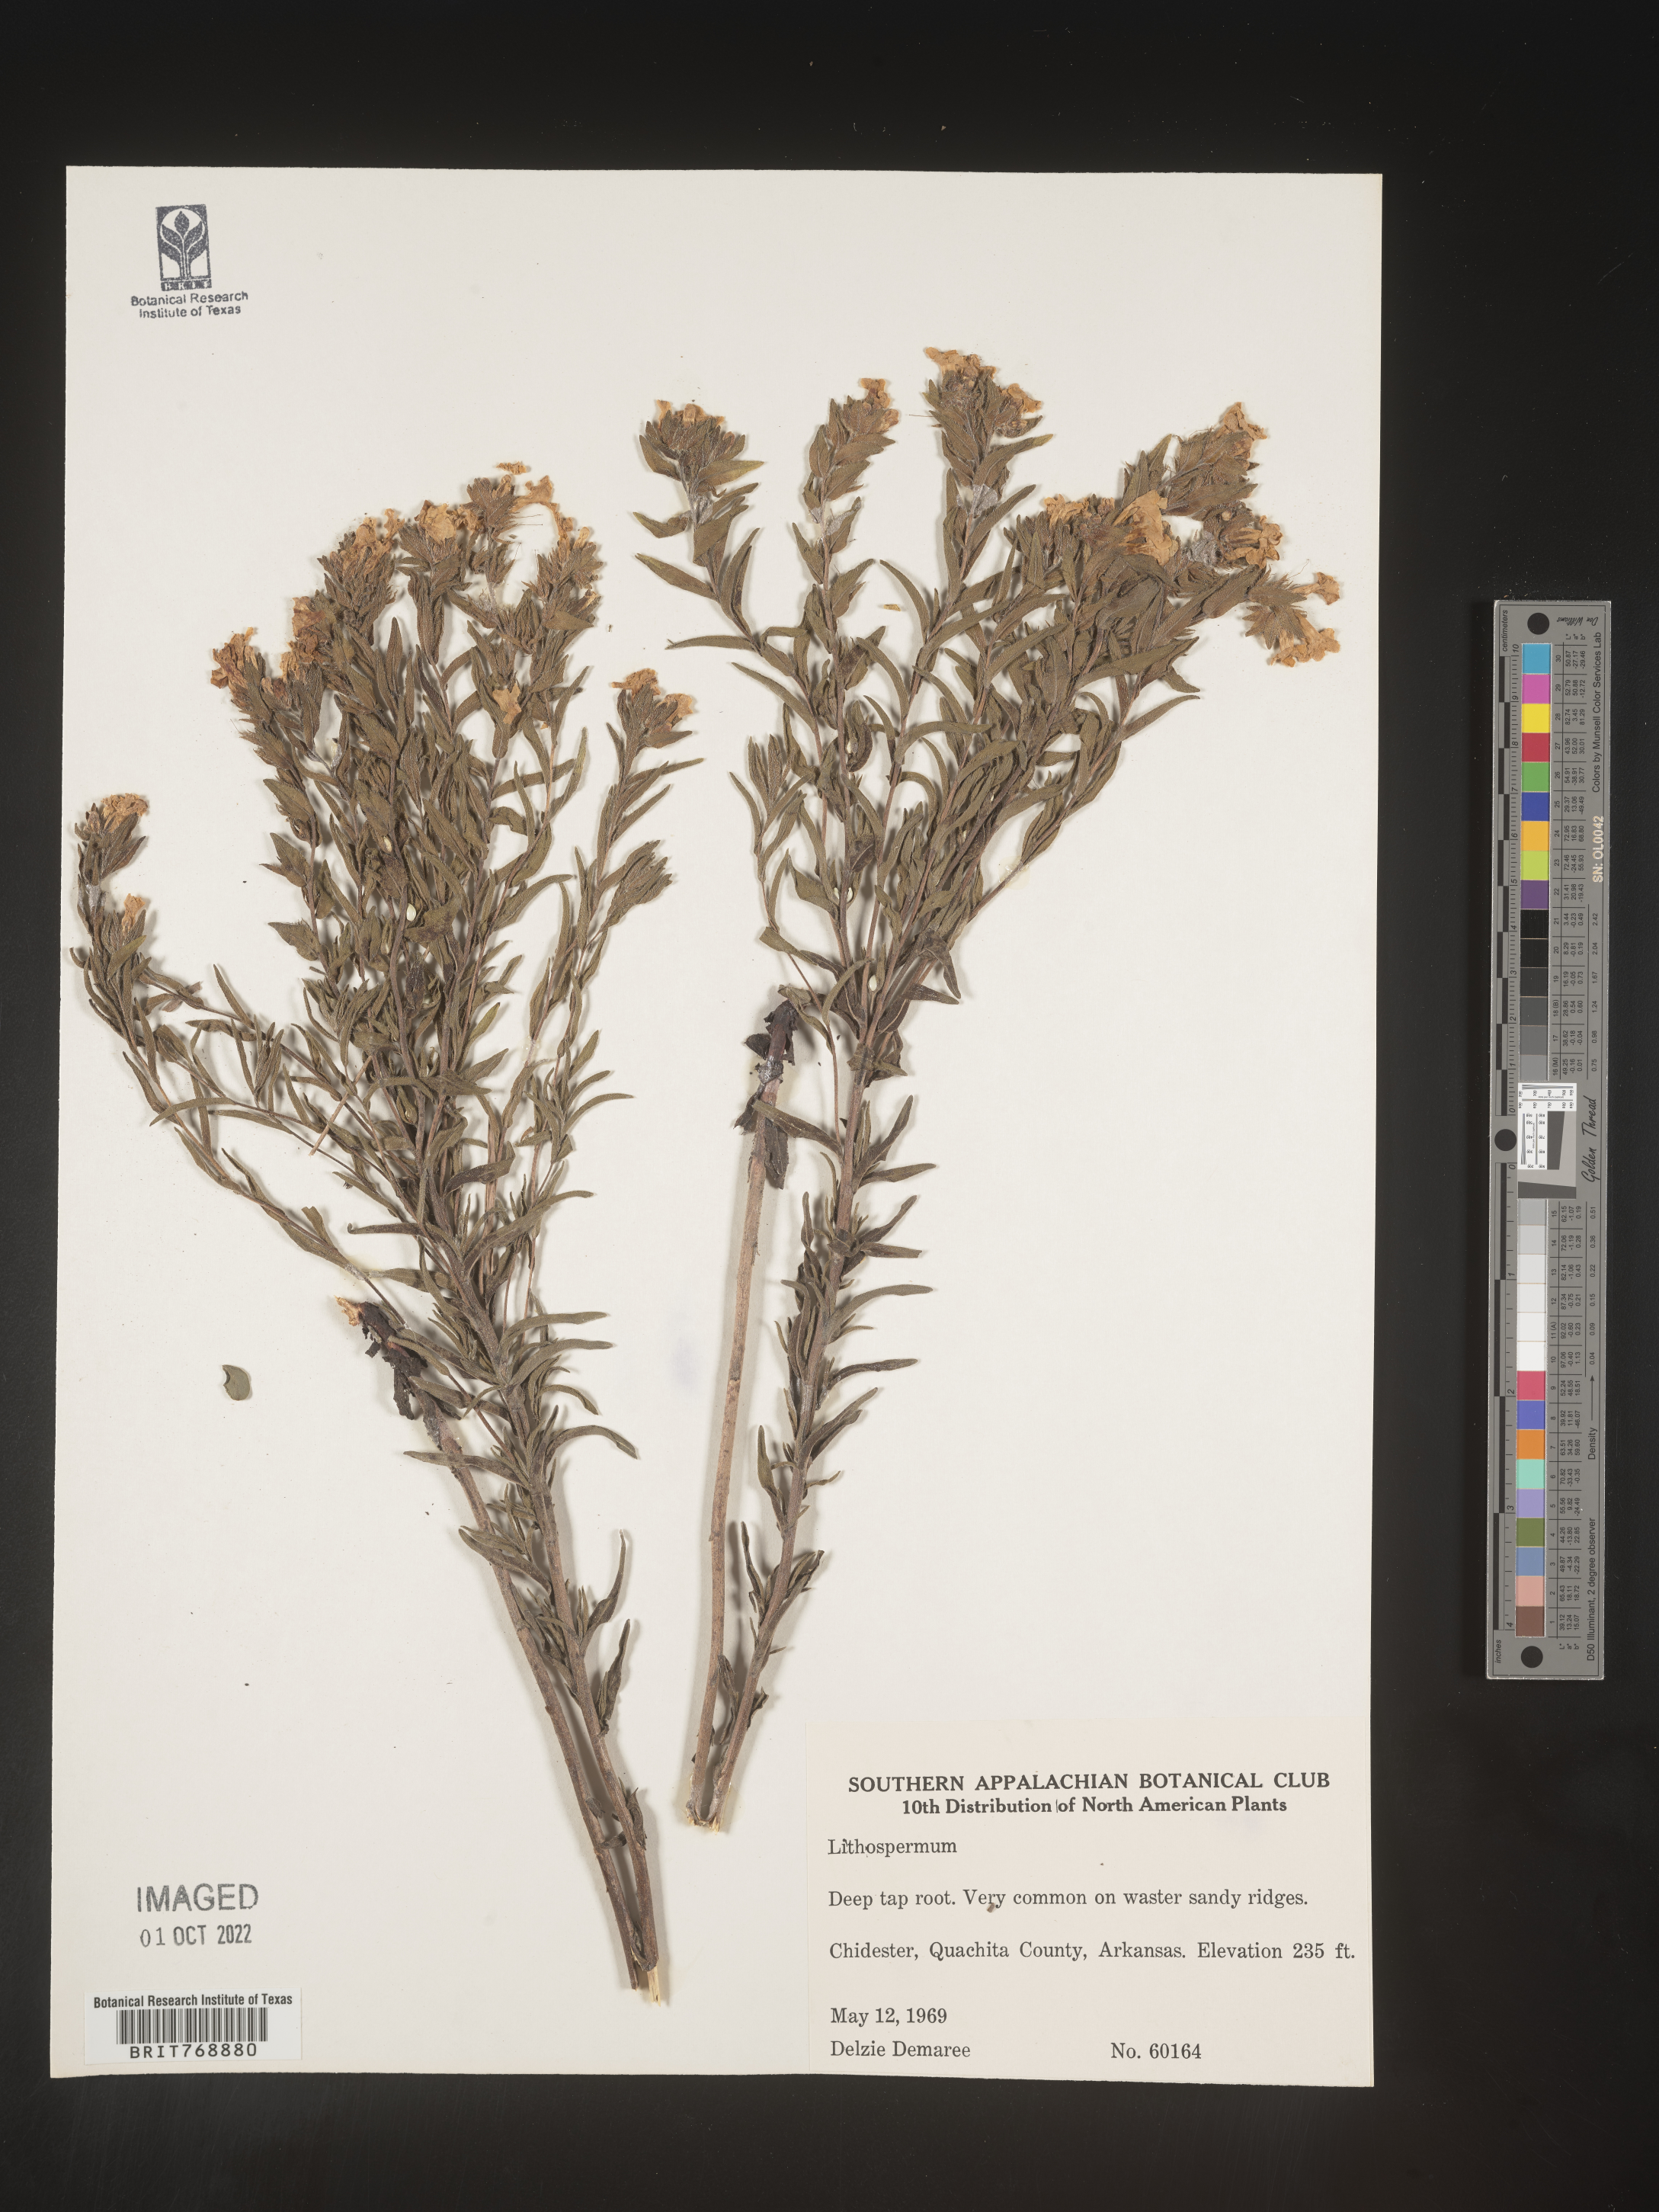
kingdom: Plantae
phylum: Tracheophyta
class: Magnoliopsida
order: Boraginales
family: Boraginaceae
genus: Lithospermum
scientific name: Lithospermum
